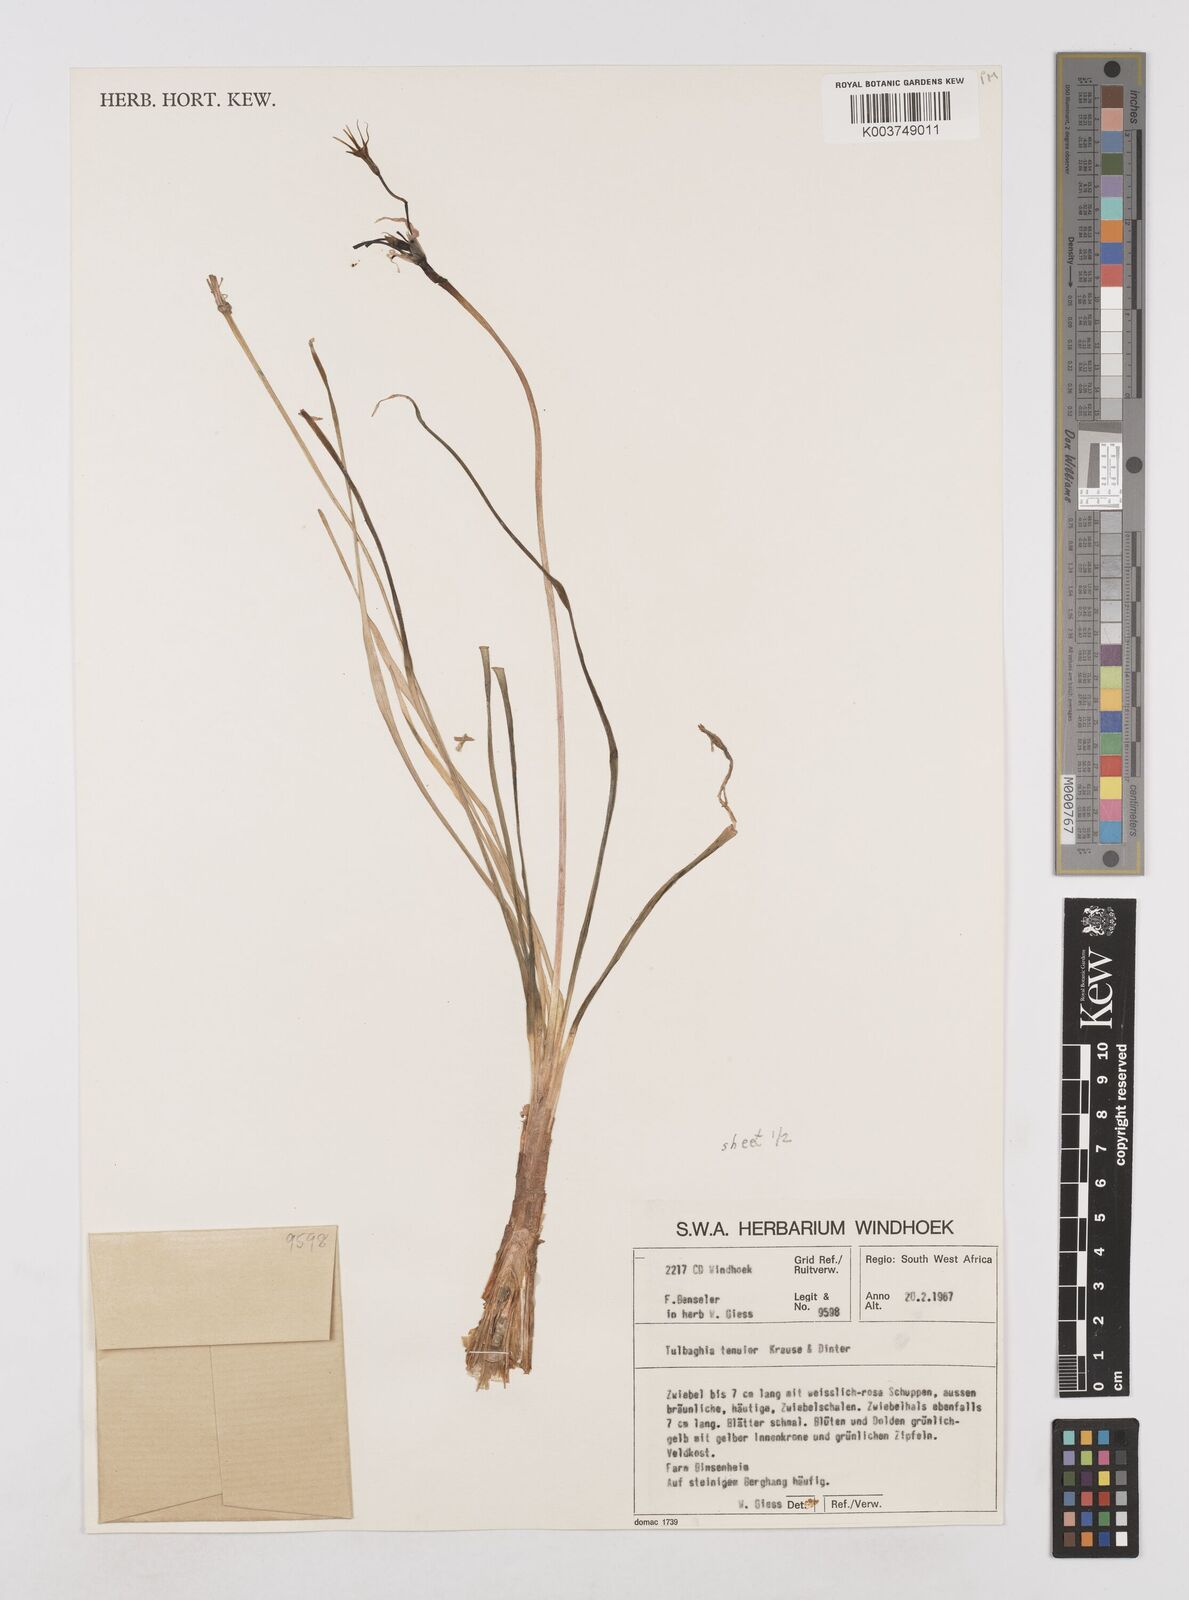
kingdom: Plantae
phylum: Tracheophyta
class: Liliopsida
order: Asparagales
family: Amaryllidaceae
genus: Tulbaghia
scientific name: Tulbaghia tenuior
